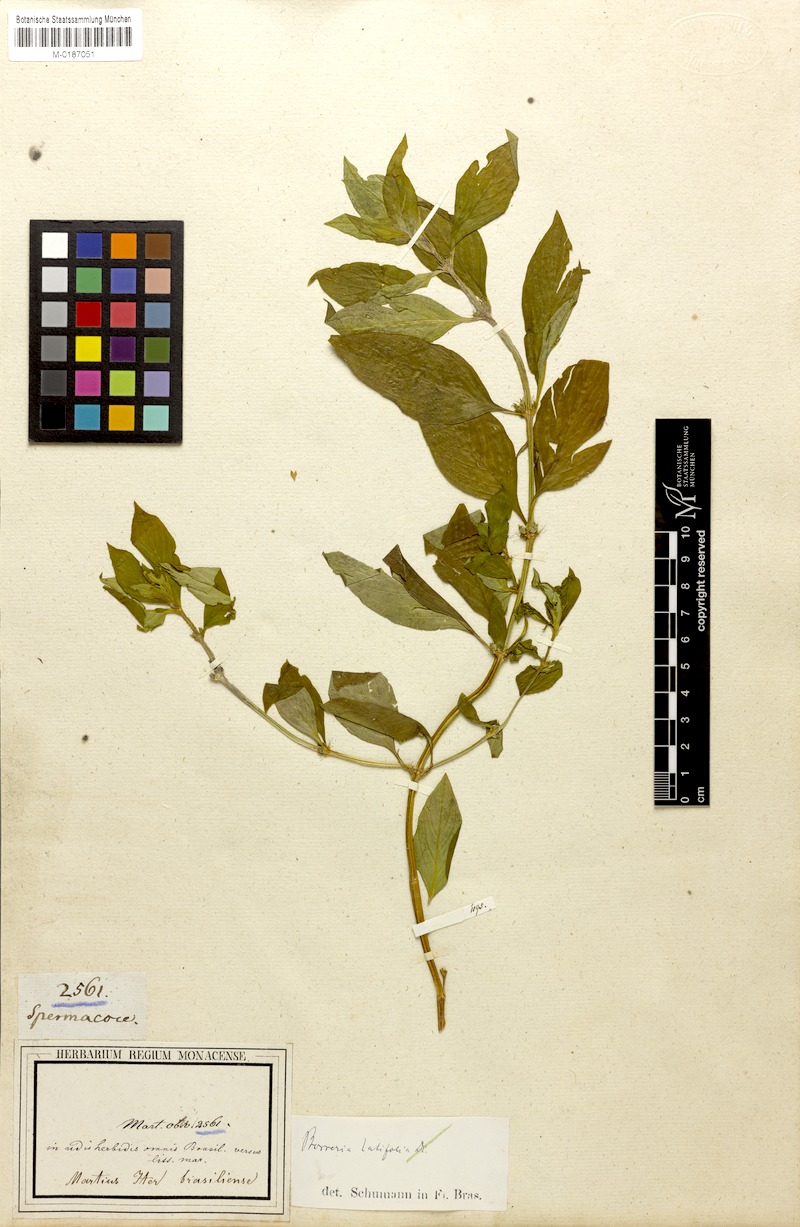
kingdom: Plantae
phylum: Tracheophyta
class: Magnoliopsida
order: Gentianales
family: Rubiaceae
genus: Spermacoce
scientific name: Spermacoce latifolia
